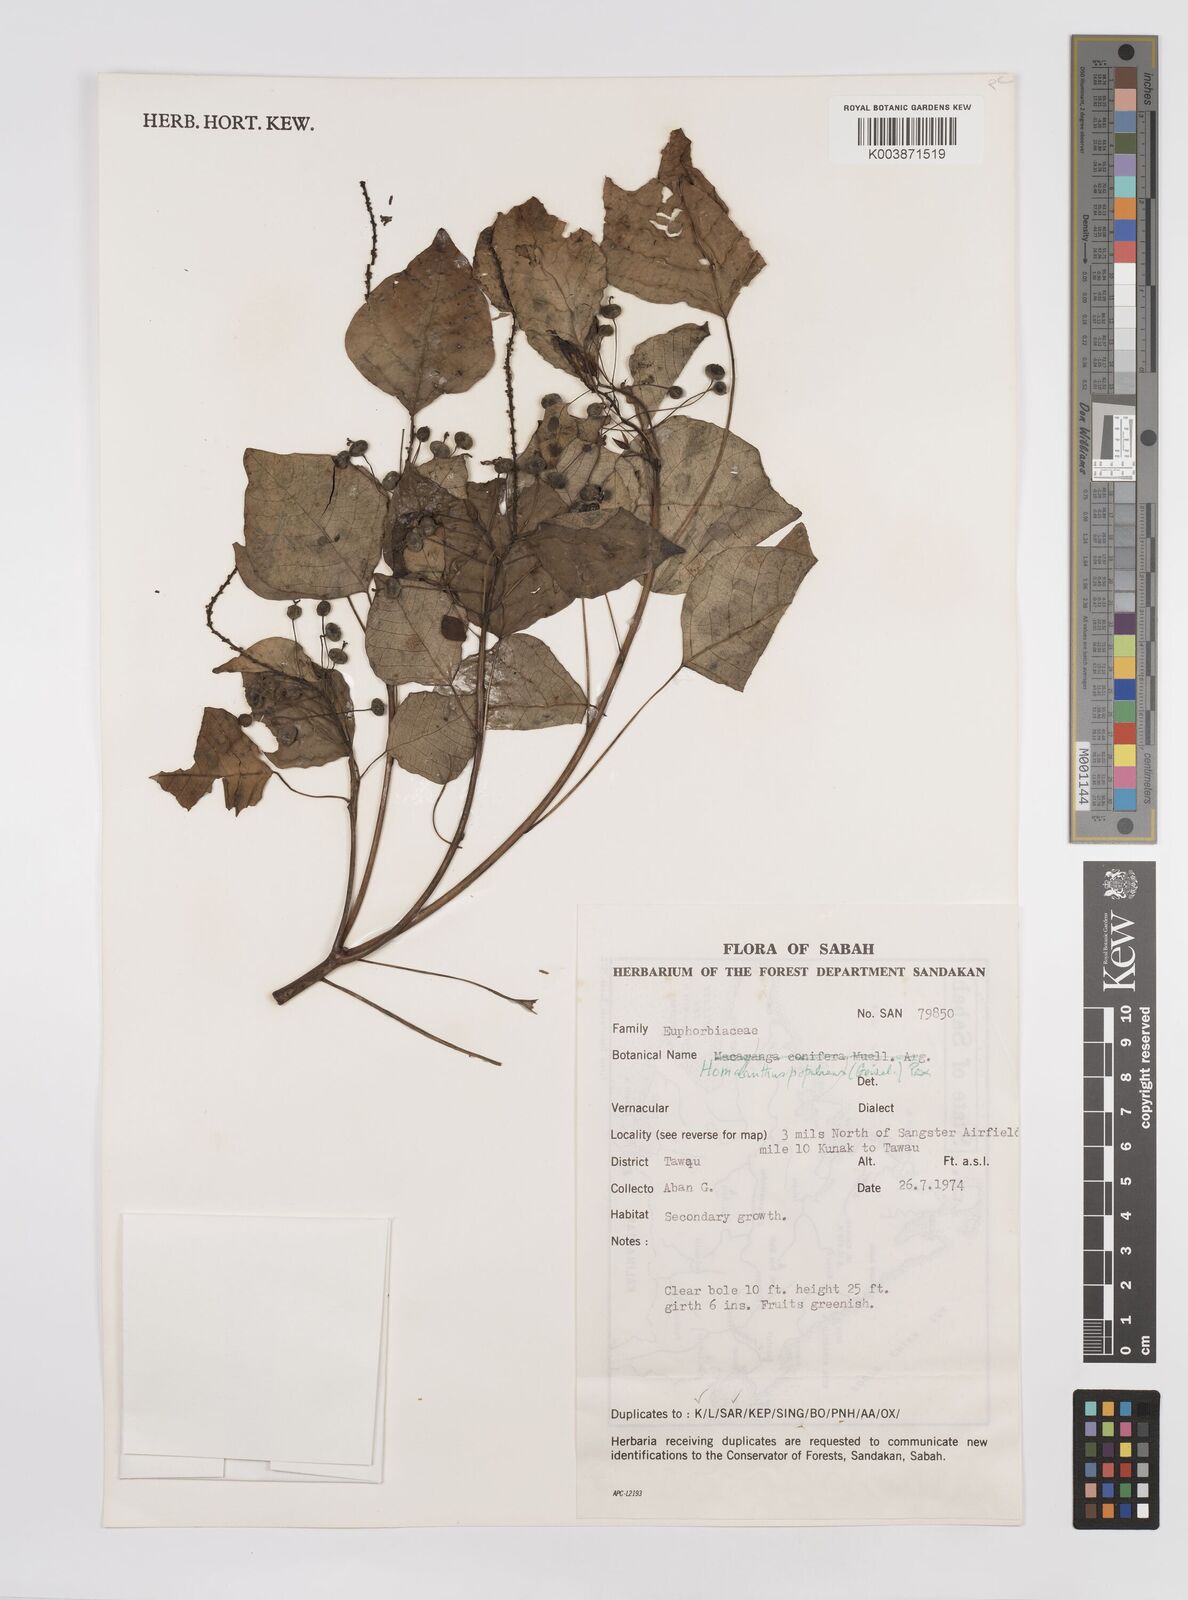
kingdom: Plantae
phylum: Tracheophyta
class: Magnoliopsida
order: Malpighiales
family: Euphorbiaceae
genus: Homalanthus
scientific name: Homalanthus populneus
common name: Spurge
